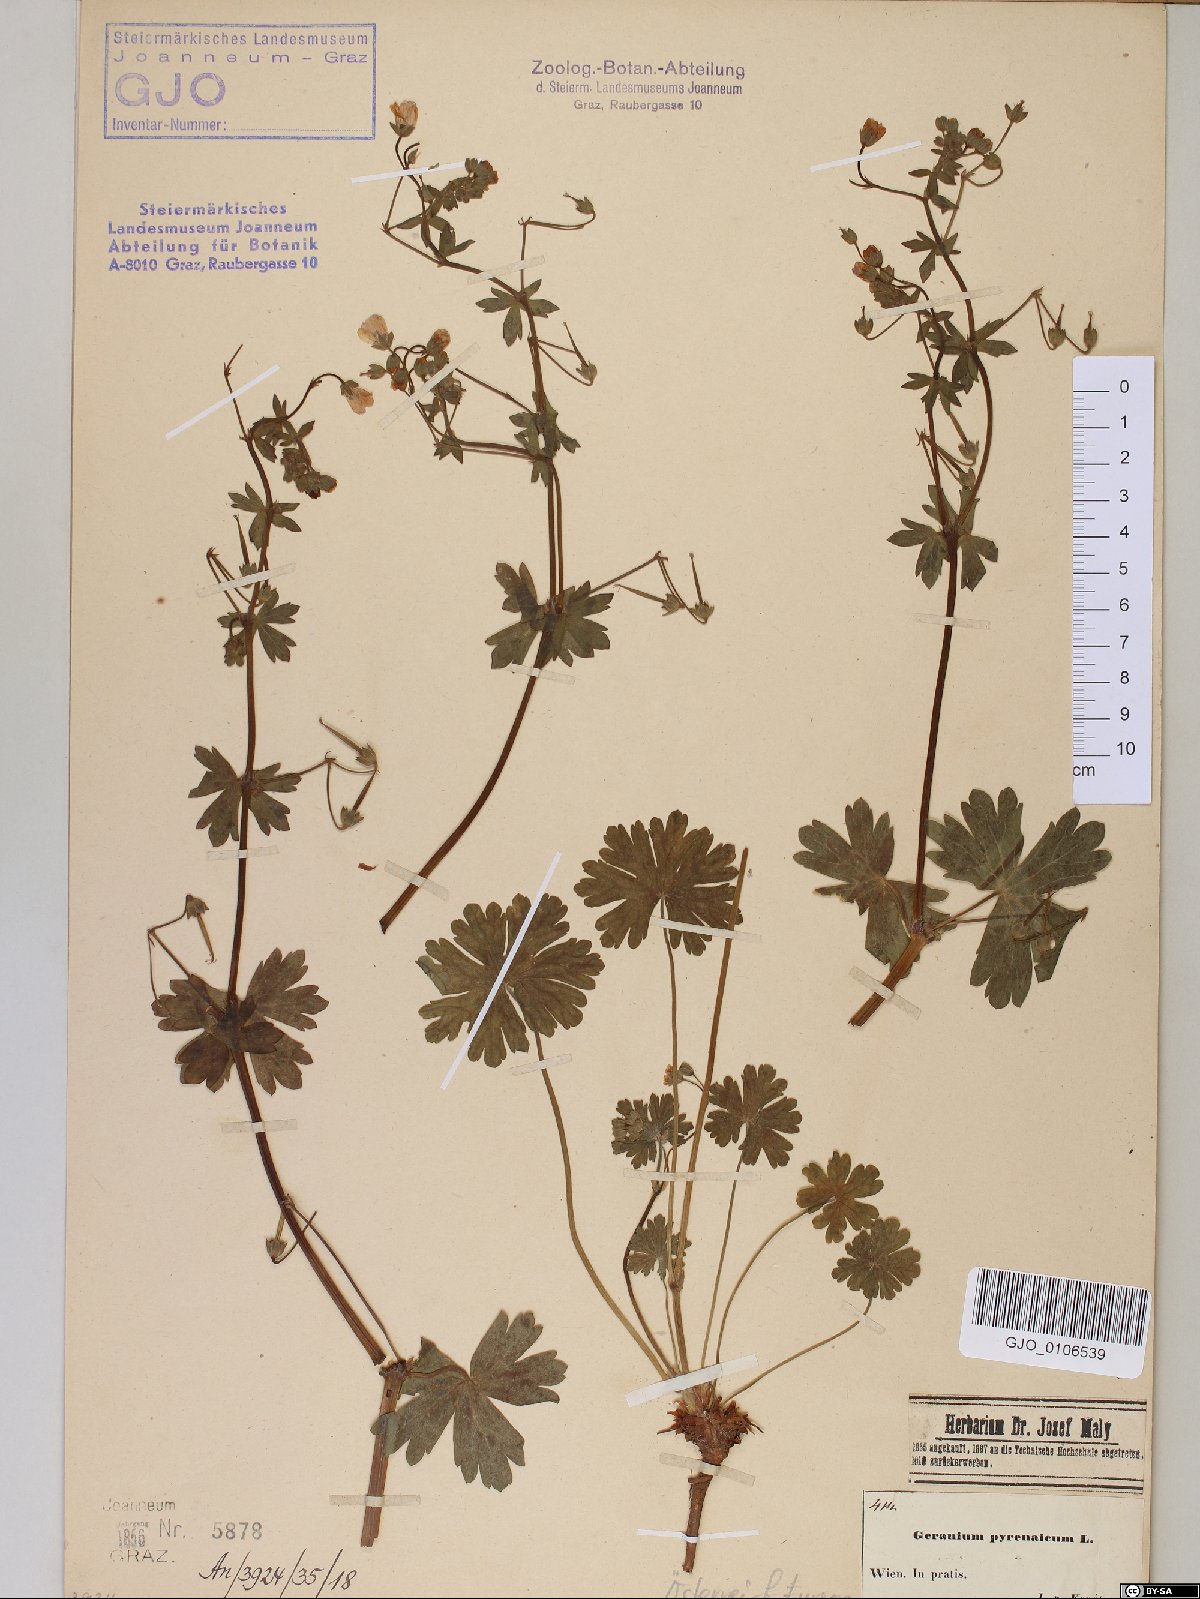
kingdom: Plantae
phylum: Tracheophyta
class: Magnoliopsida
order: Geraniales
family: Geraniaceae
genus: Geranium
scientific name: Geranium pyrenaicum
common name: Hedgerow crane's-bill
